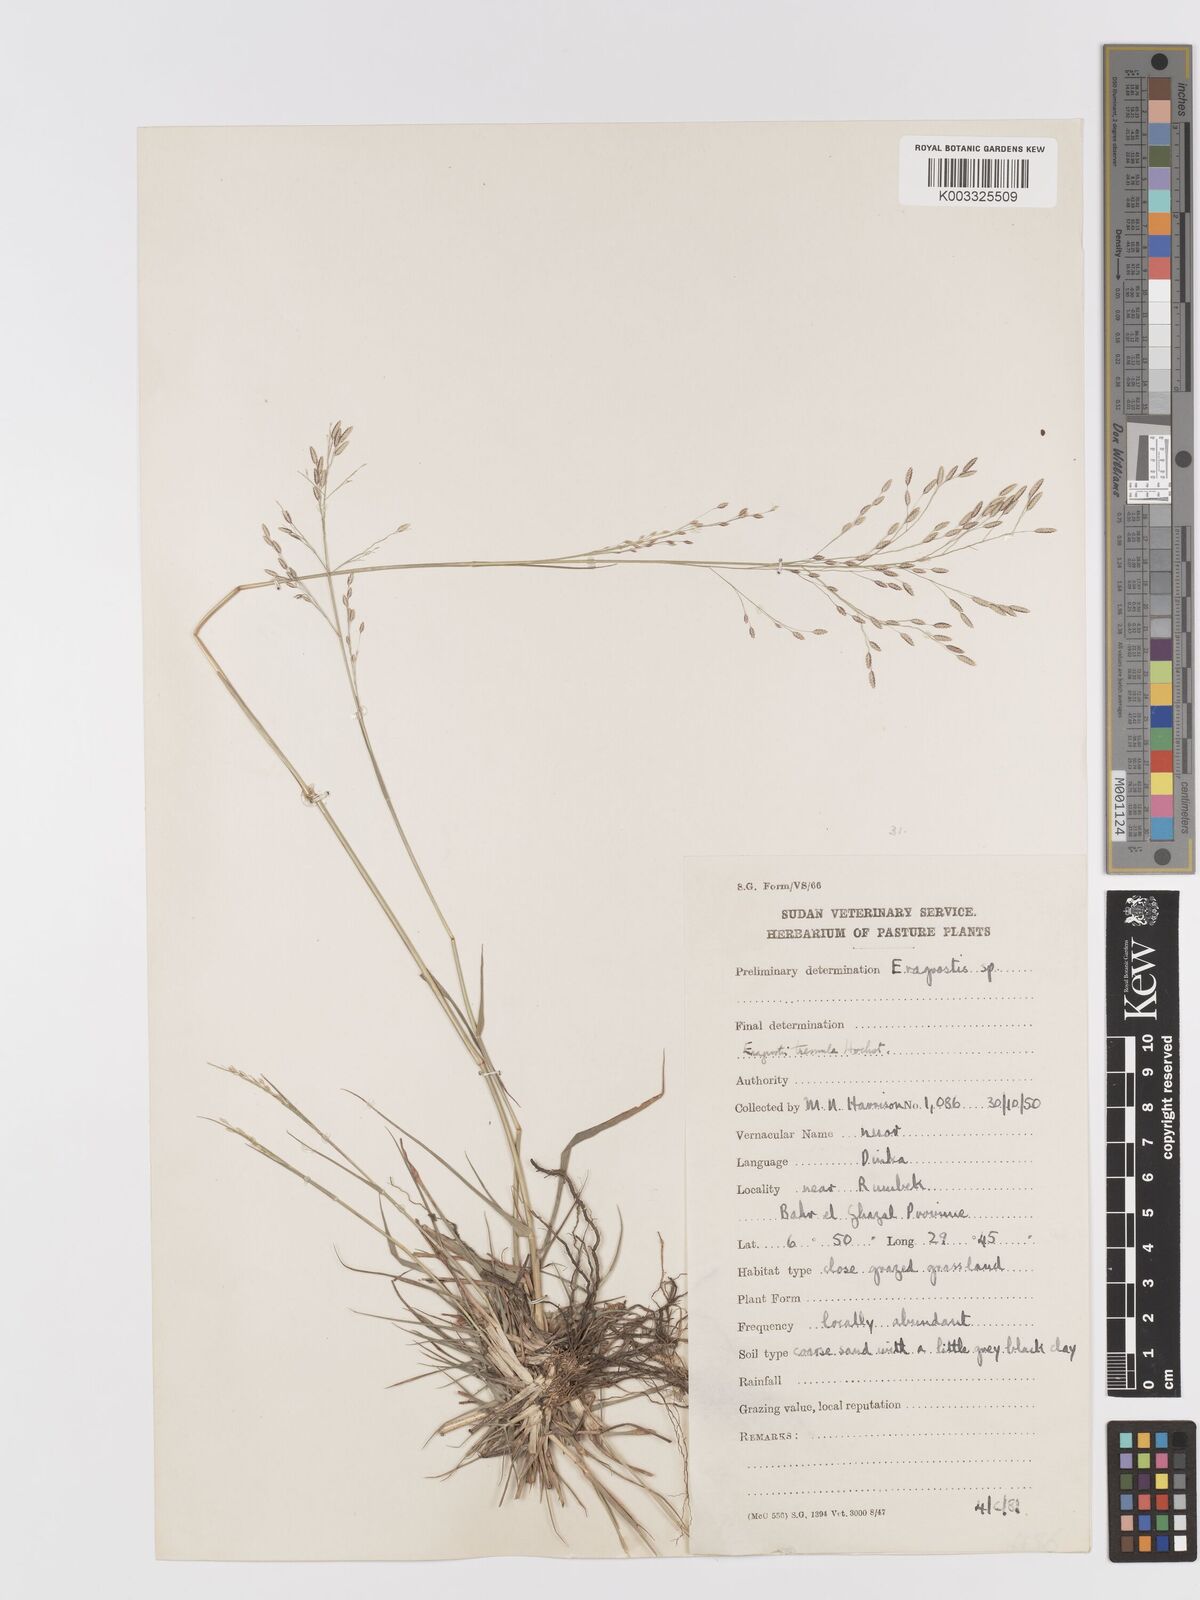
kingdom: Plantae
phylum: Tracheophyta
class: Liliopsida
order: Poales
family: Poaceae
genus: Eragrostis
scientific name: Eragrostis tremula
